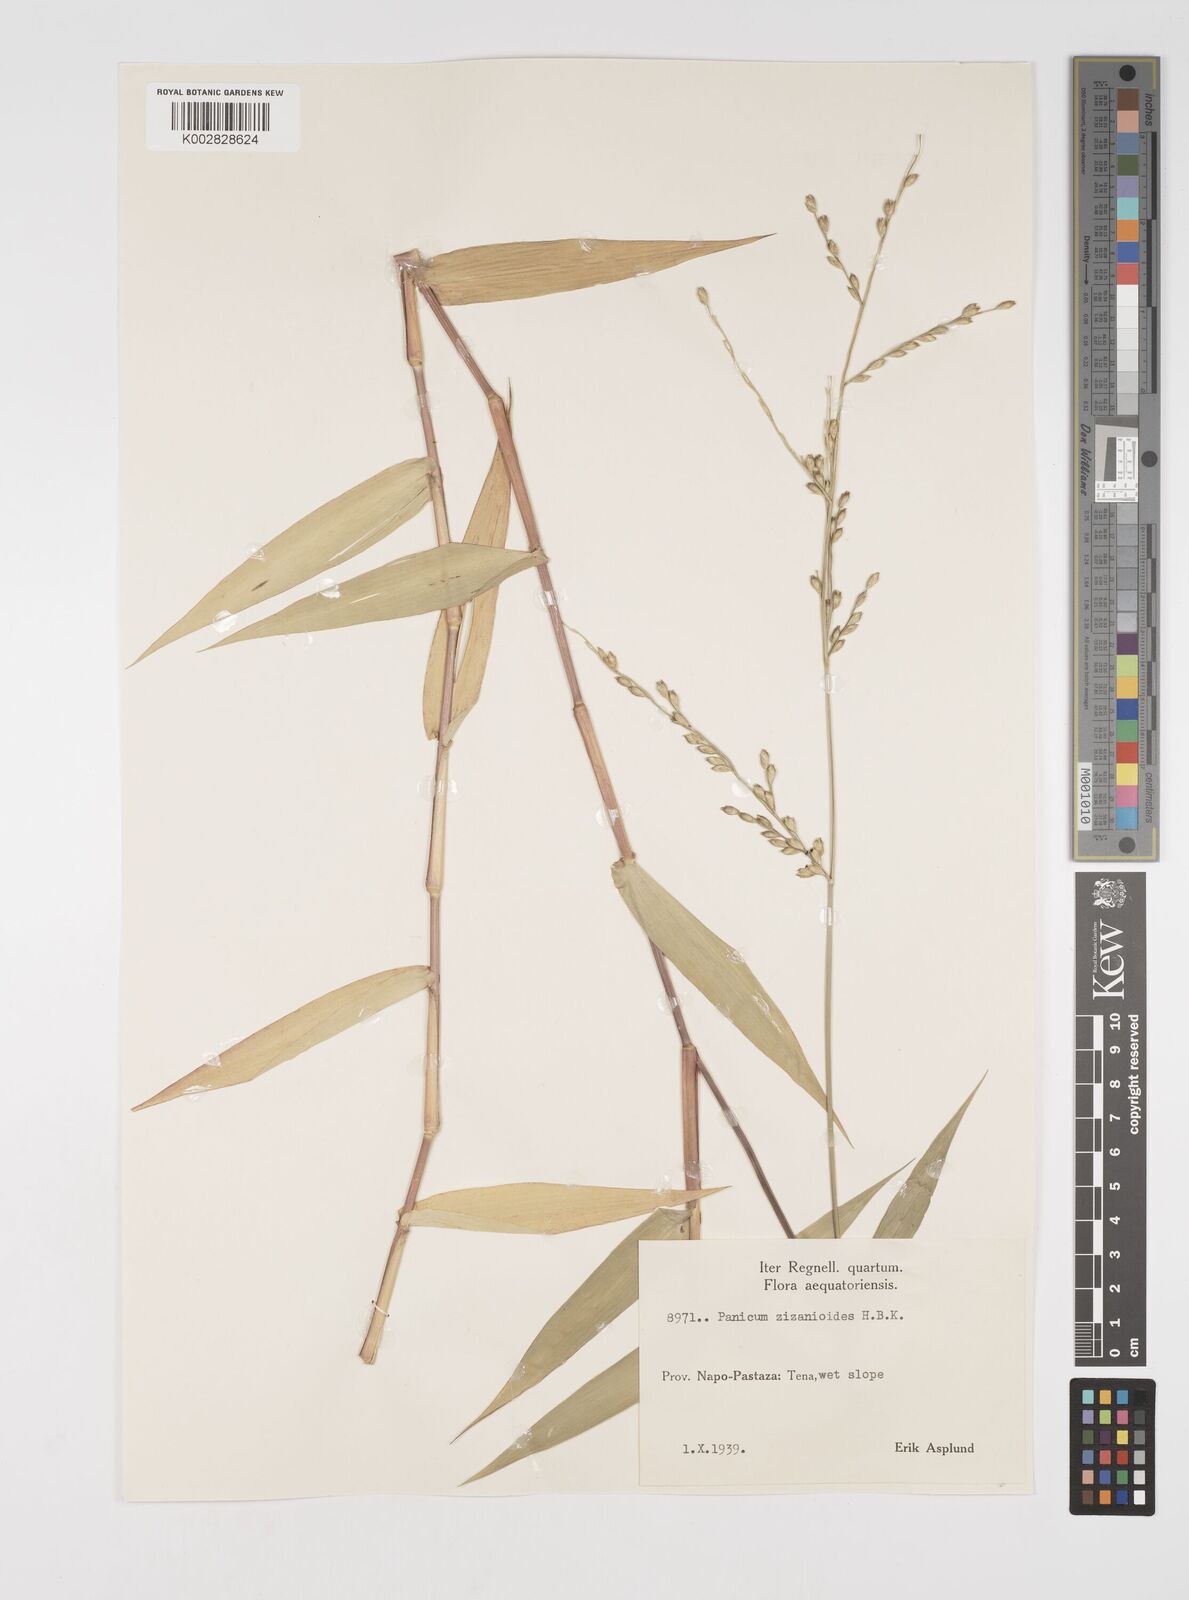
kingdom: Plantae
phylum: Tracheophyta
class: Liliopsida
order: Poales
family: Poaceae
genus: Acroceras
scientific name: Acroceras zizanioides
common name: Oat grass
